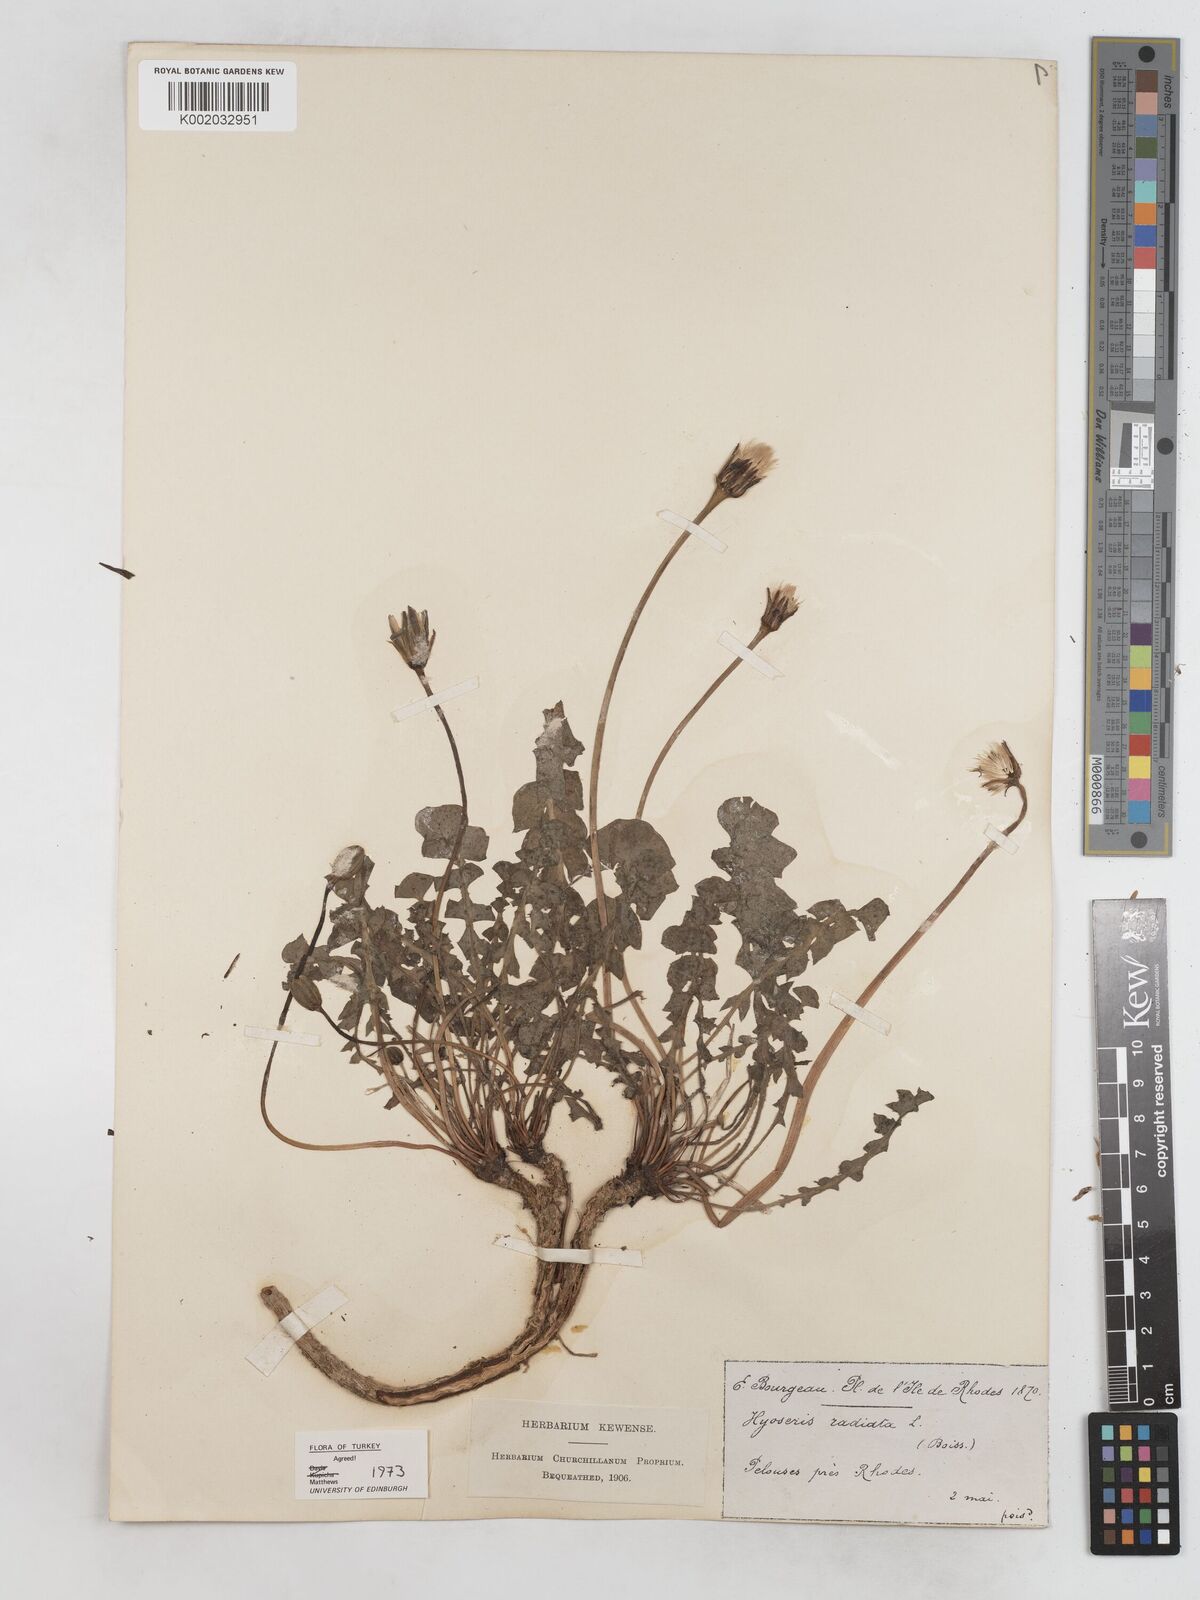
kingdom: Plantae
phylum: Tracheophyta
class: Magnoliopsida
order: Asterales
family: Asteraceae
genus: Hyoseris
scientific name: Hyoseris radiata
